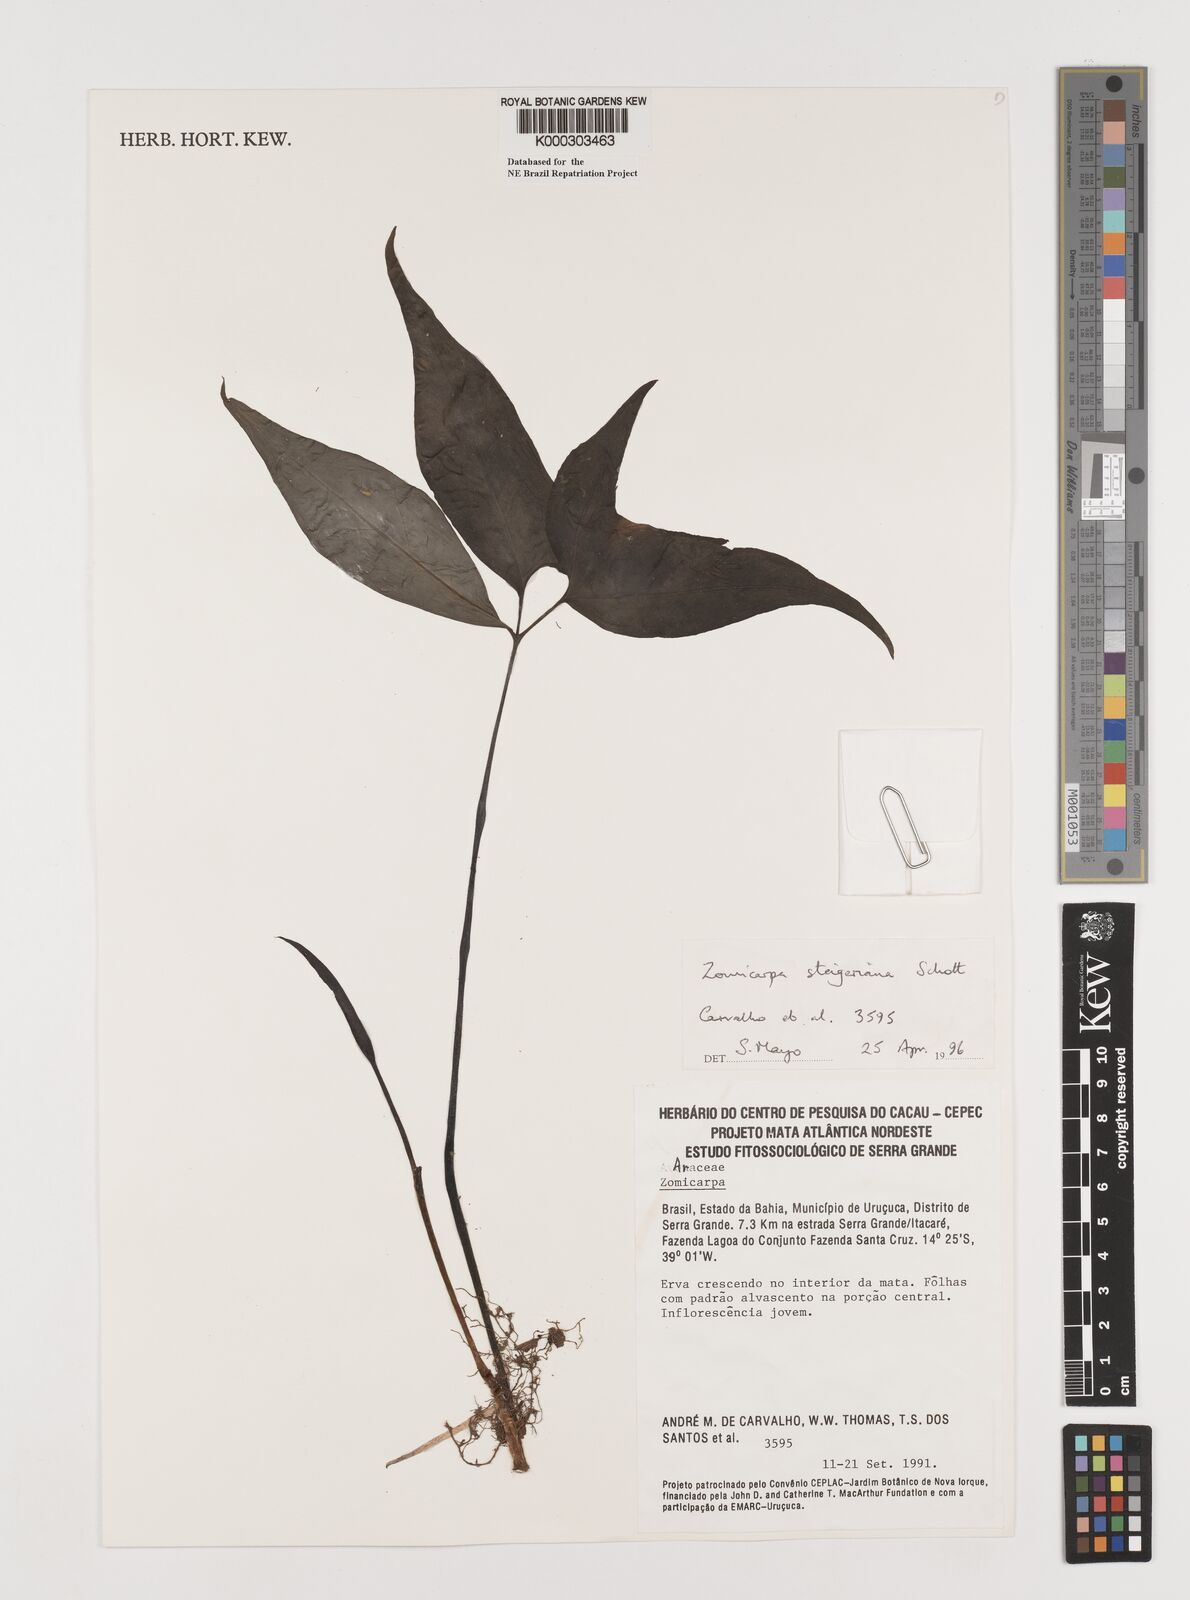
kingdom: Plantae
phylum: Tracheophyta
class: Liliopsida
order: Alismatales
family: Araceae
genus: Zomicarpa
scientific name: Zomicarpa steigeriana
